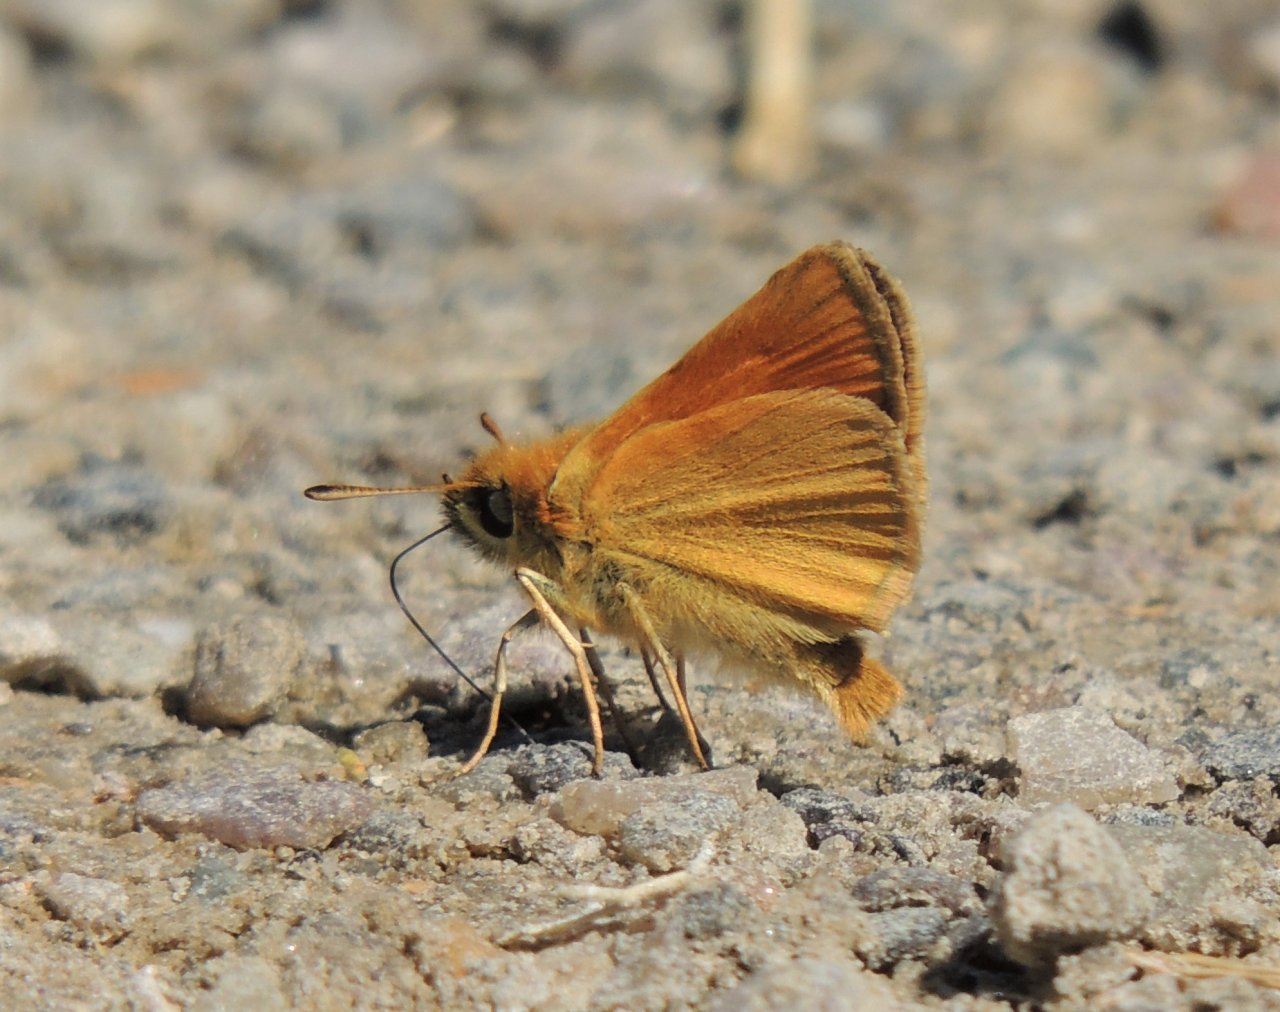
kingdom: Animalia
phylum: Arthropoda
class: Insecta
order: Lepidoptera
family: Hesperiidae
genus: Thymelicus
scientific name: Thymelicus lineola
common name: European Skipper
